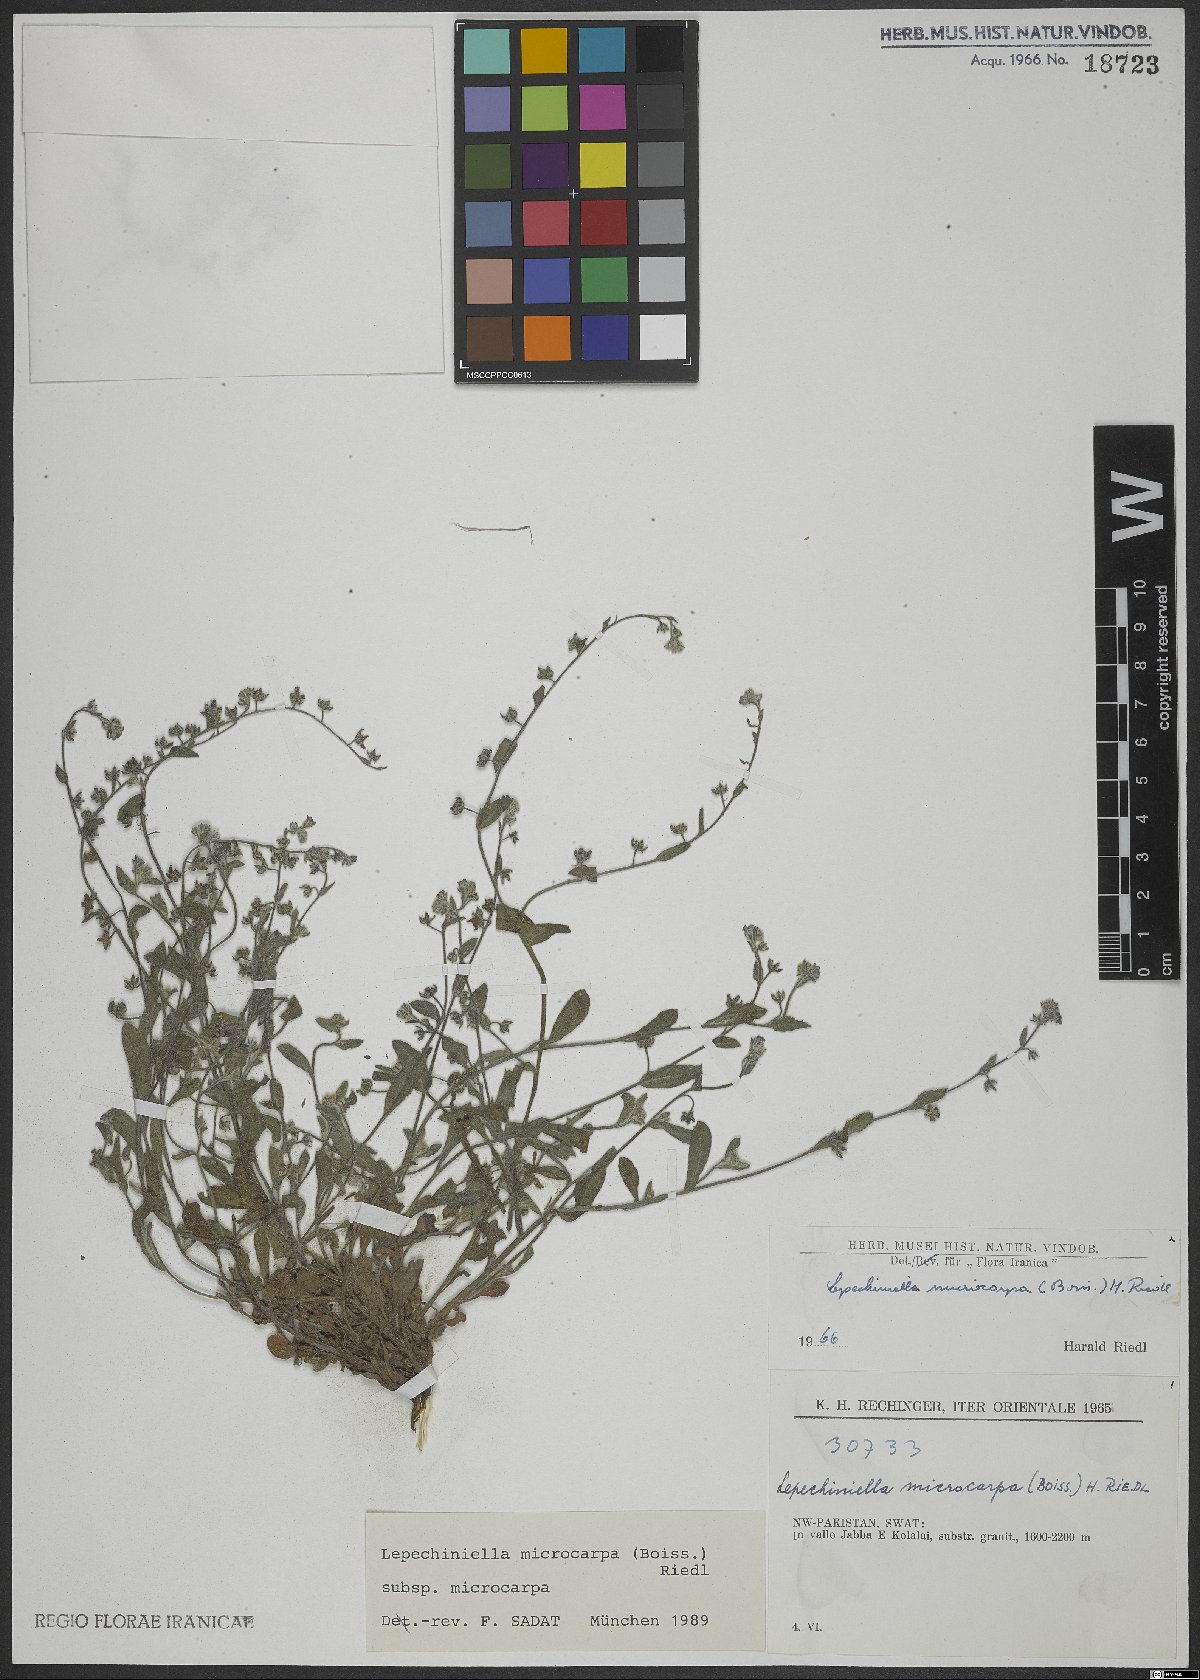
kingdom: Plantae
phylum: Tracheophyta
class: Magnoliopsida
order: Boraginales
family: Boraginaceae
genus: Lepechiniella
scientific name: Lepechiniella microcarpa
